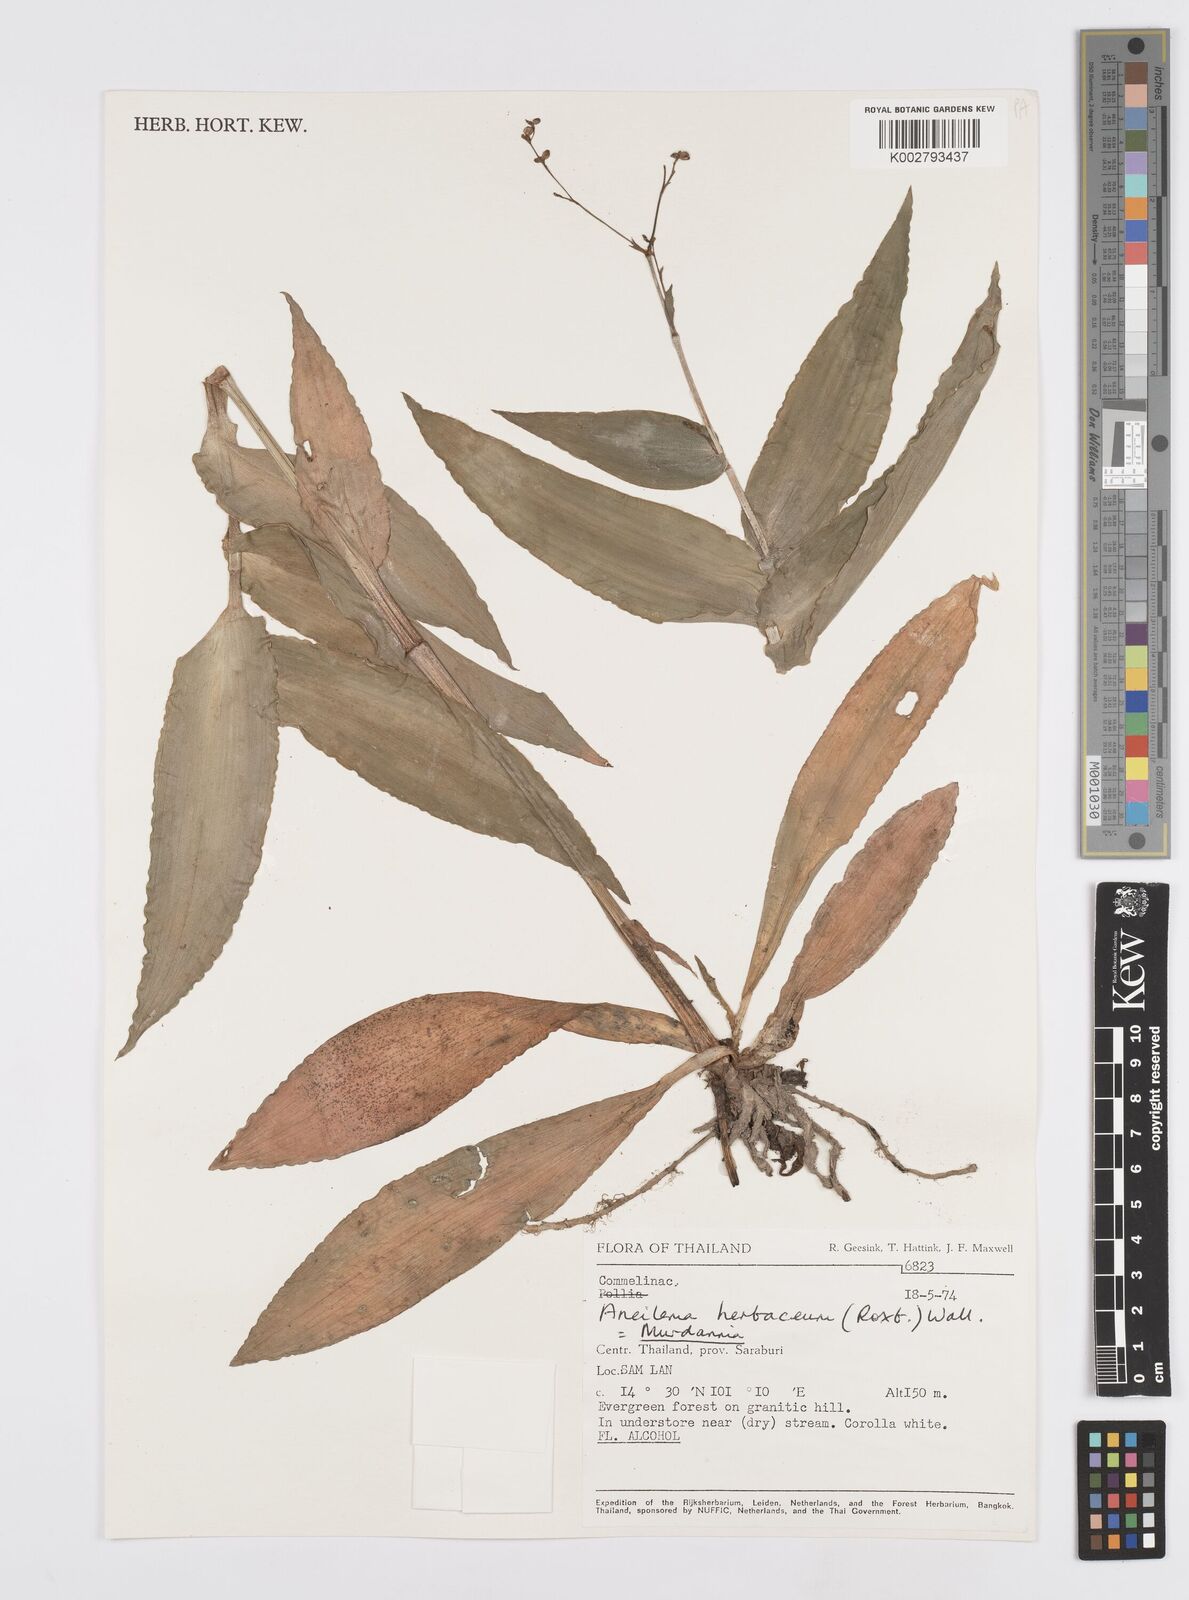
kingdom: Plantae
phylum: Tracheophyta
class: Liliopsida
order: Commelinales
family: Commelinaceae
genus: Murdannia
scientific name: Murdannia
